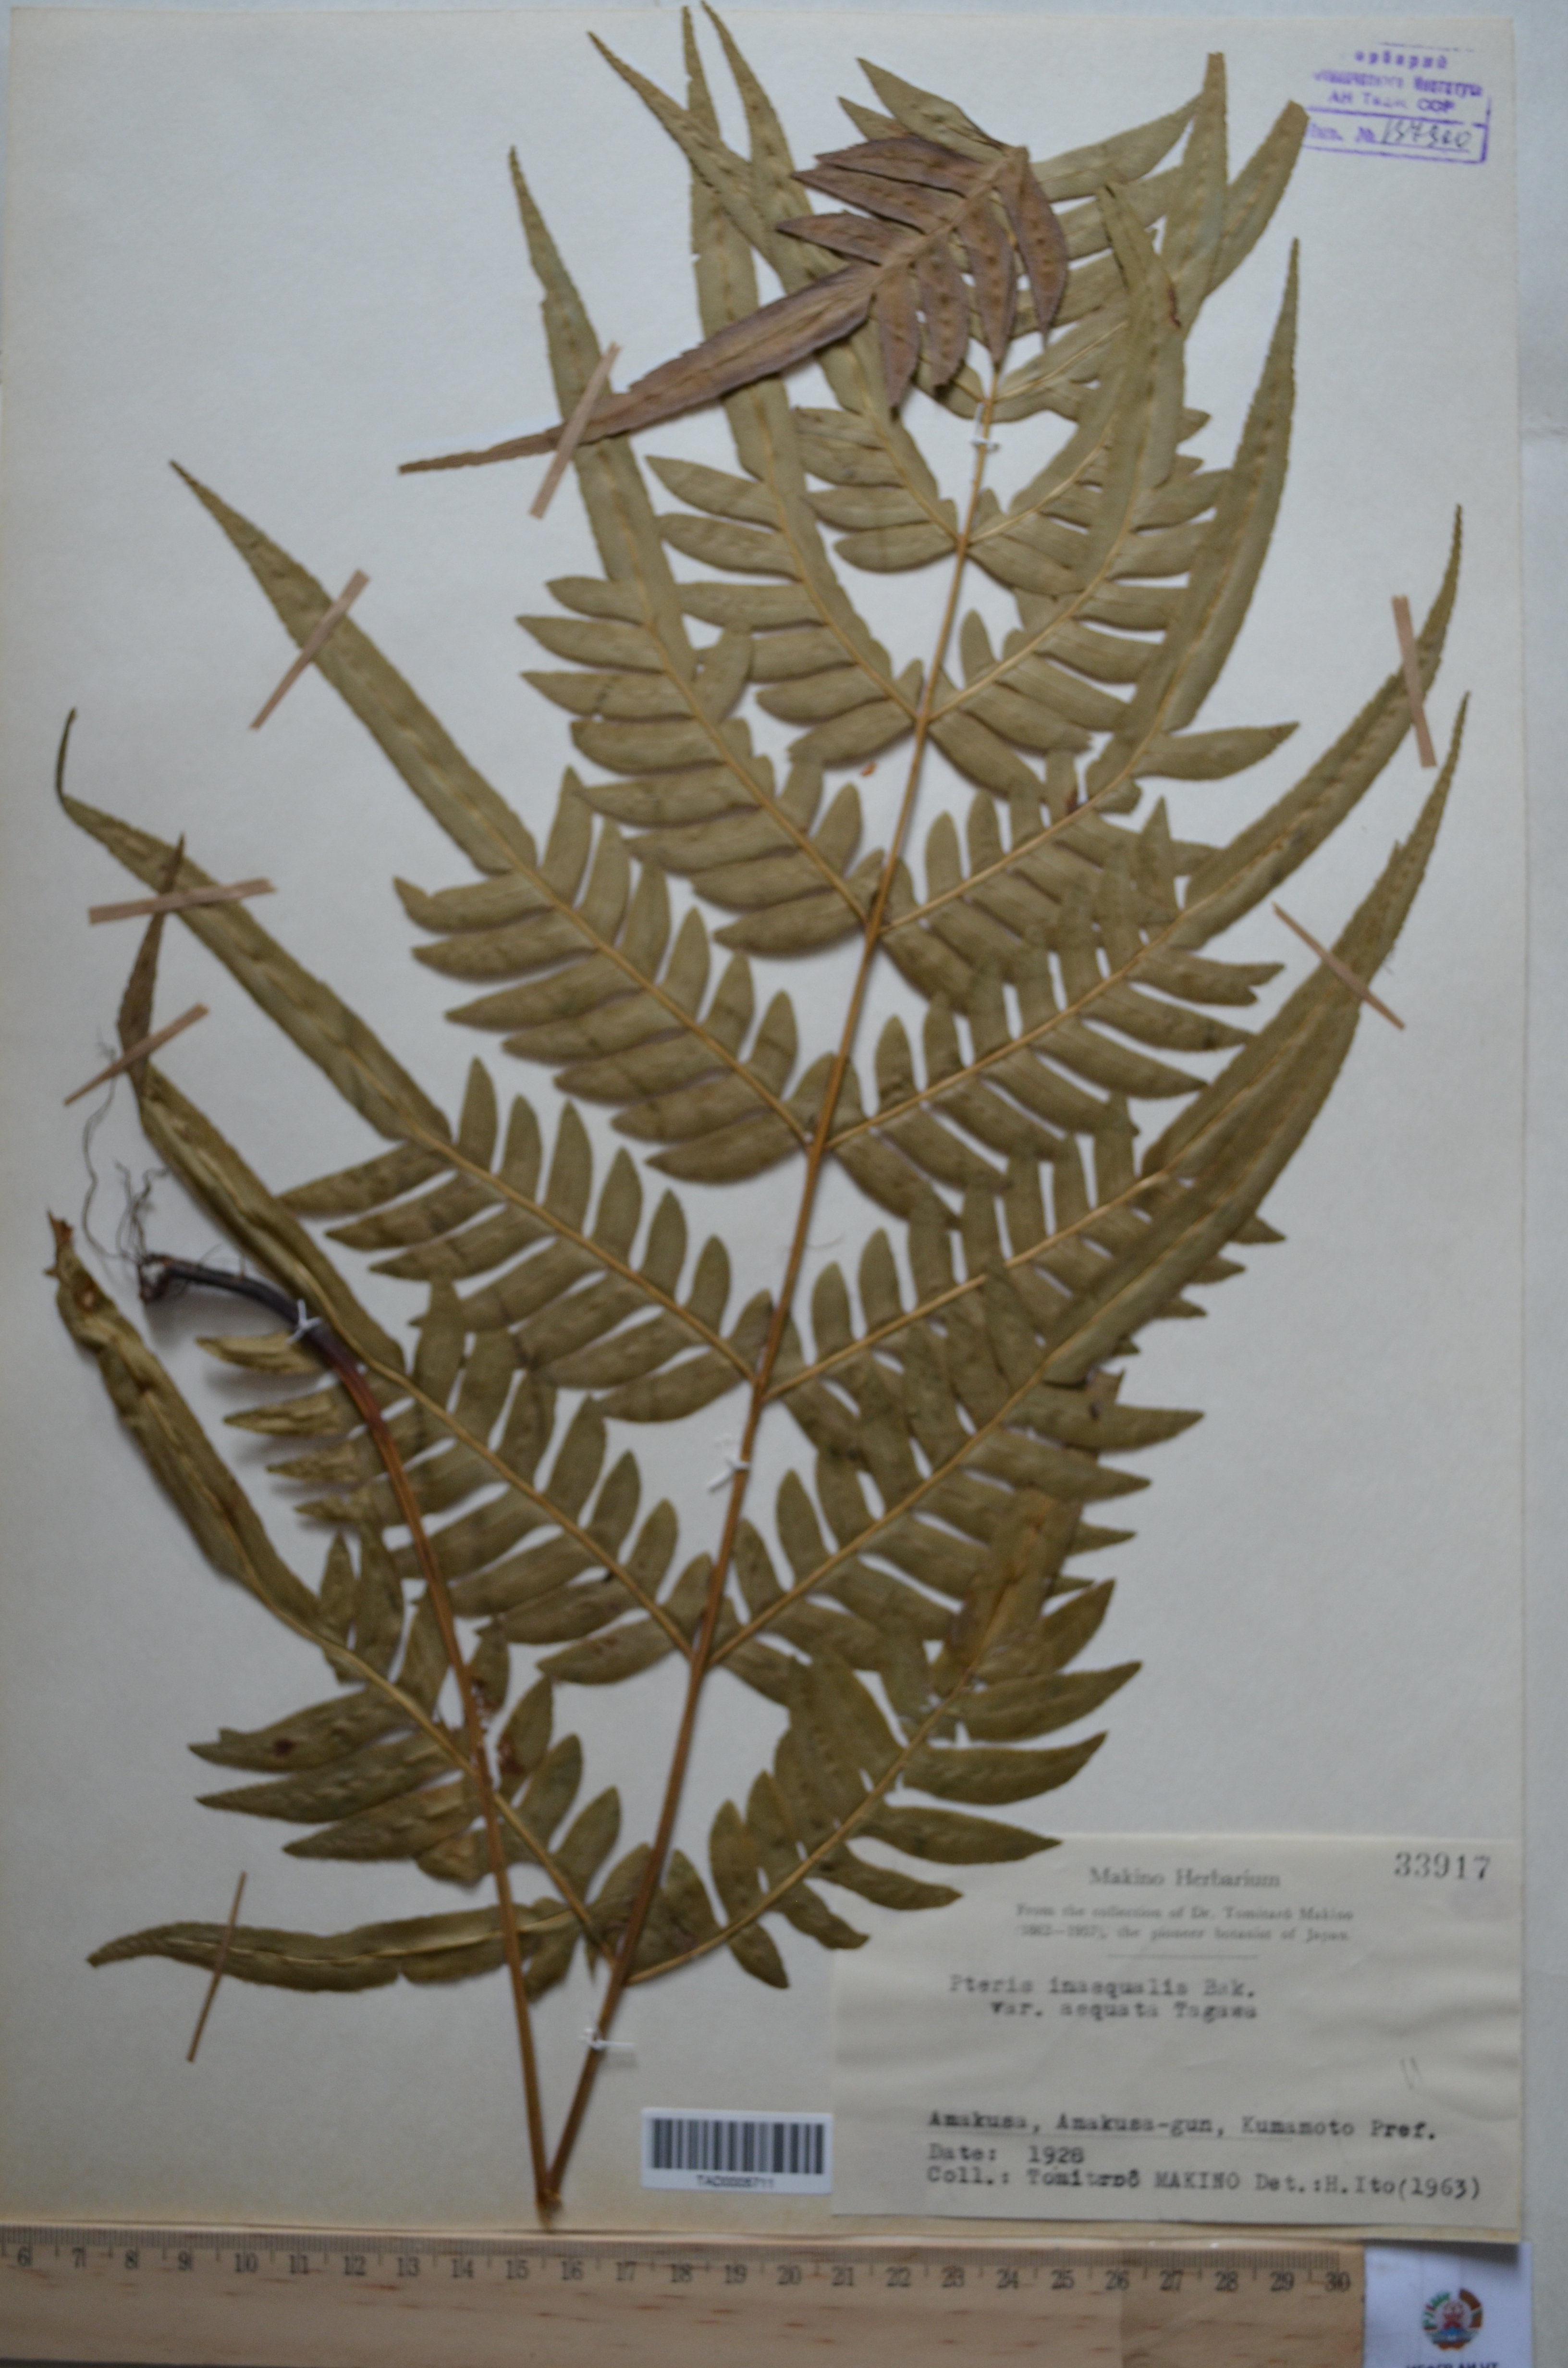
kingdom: Plantae
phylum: Tracheophyta
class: Polypodiopsida
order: Polypodiales
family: Pteridaceae
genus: Pteris
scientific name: Pteris inaequalis
